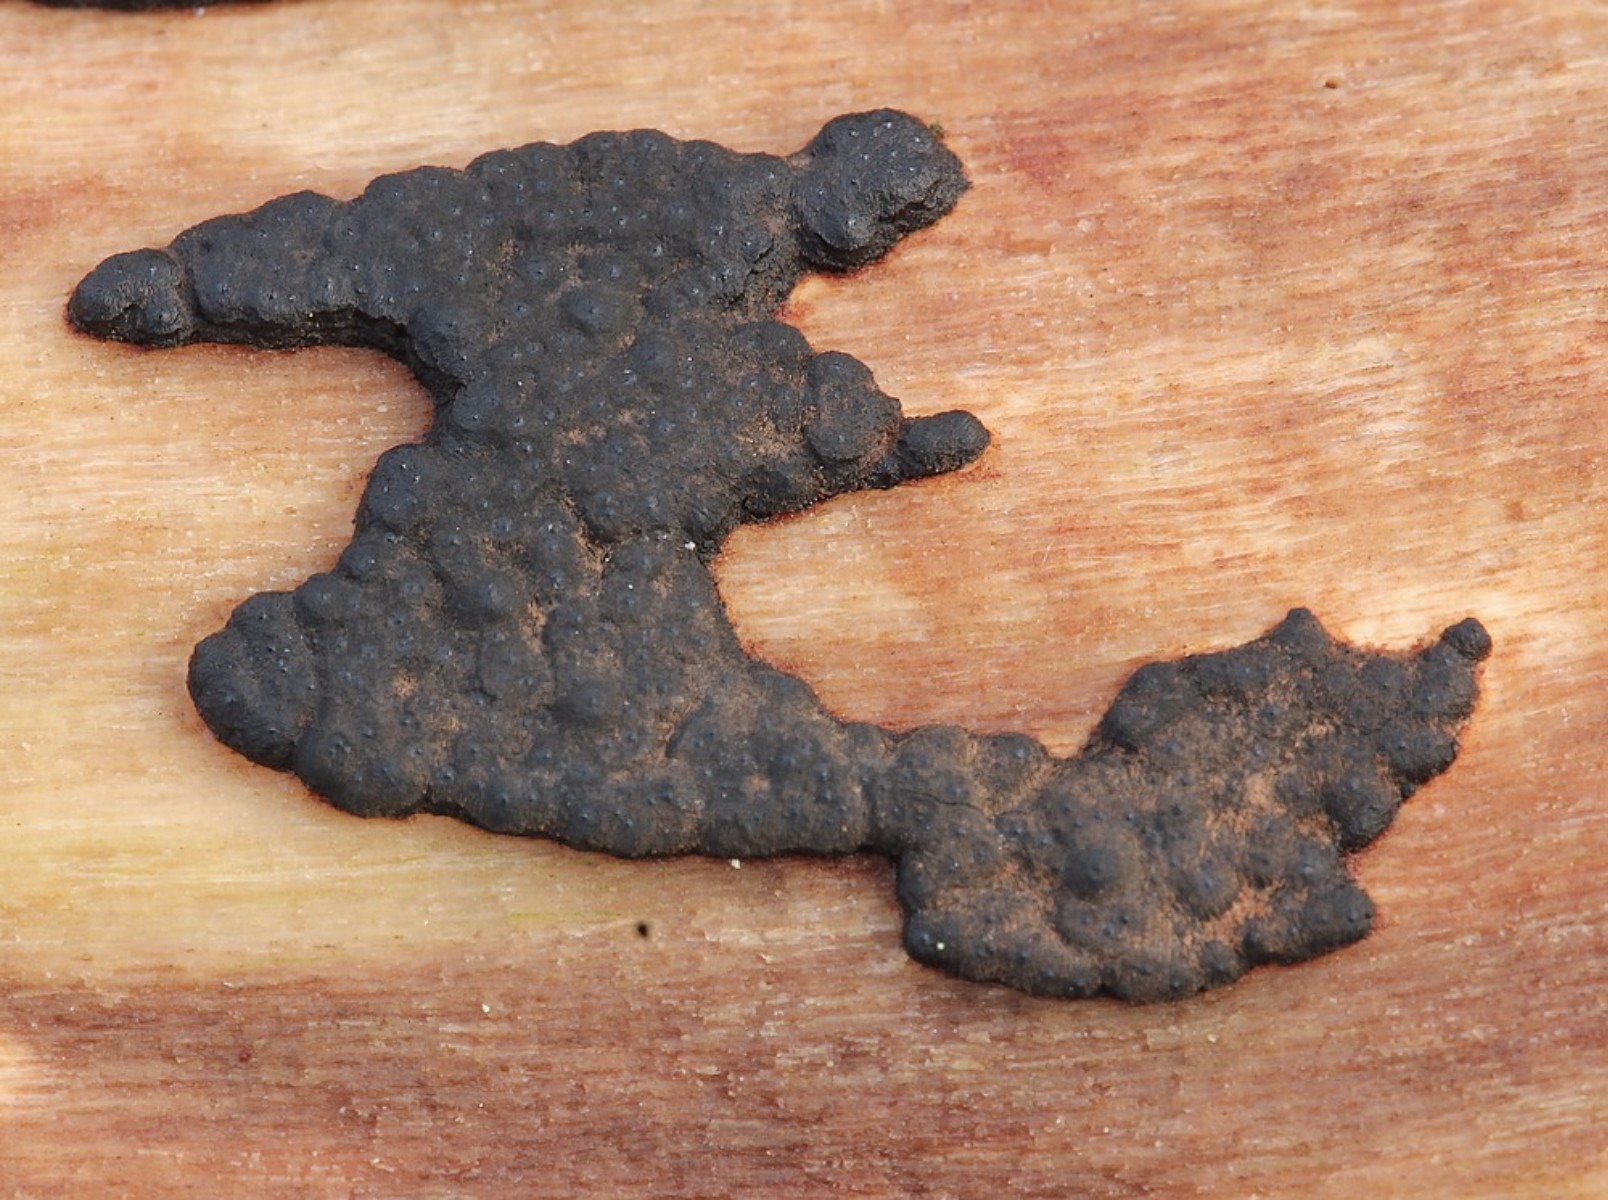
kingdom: Fungi
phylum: Ascomycota
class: Sordariomycetes
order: Xylariales
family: Xylariaceae
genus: Nemania
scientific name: Nemania serpens
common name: almindelig kuldyne
